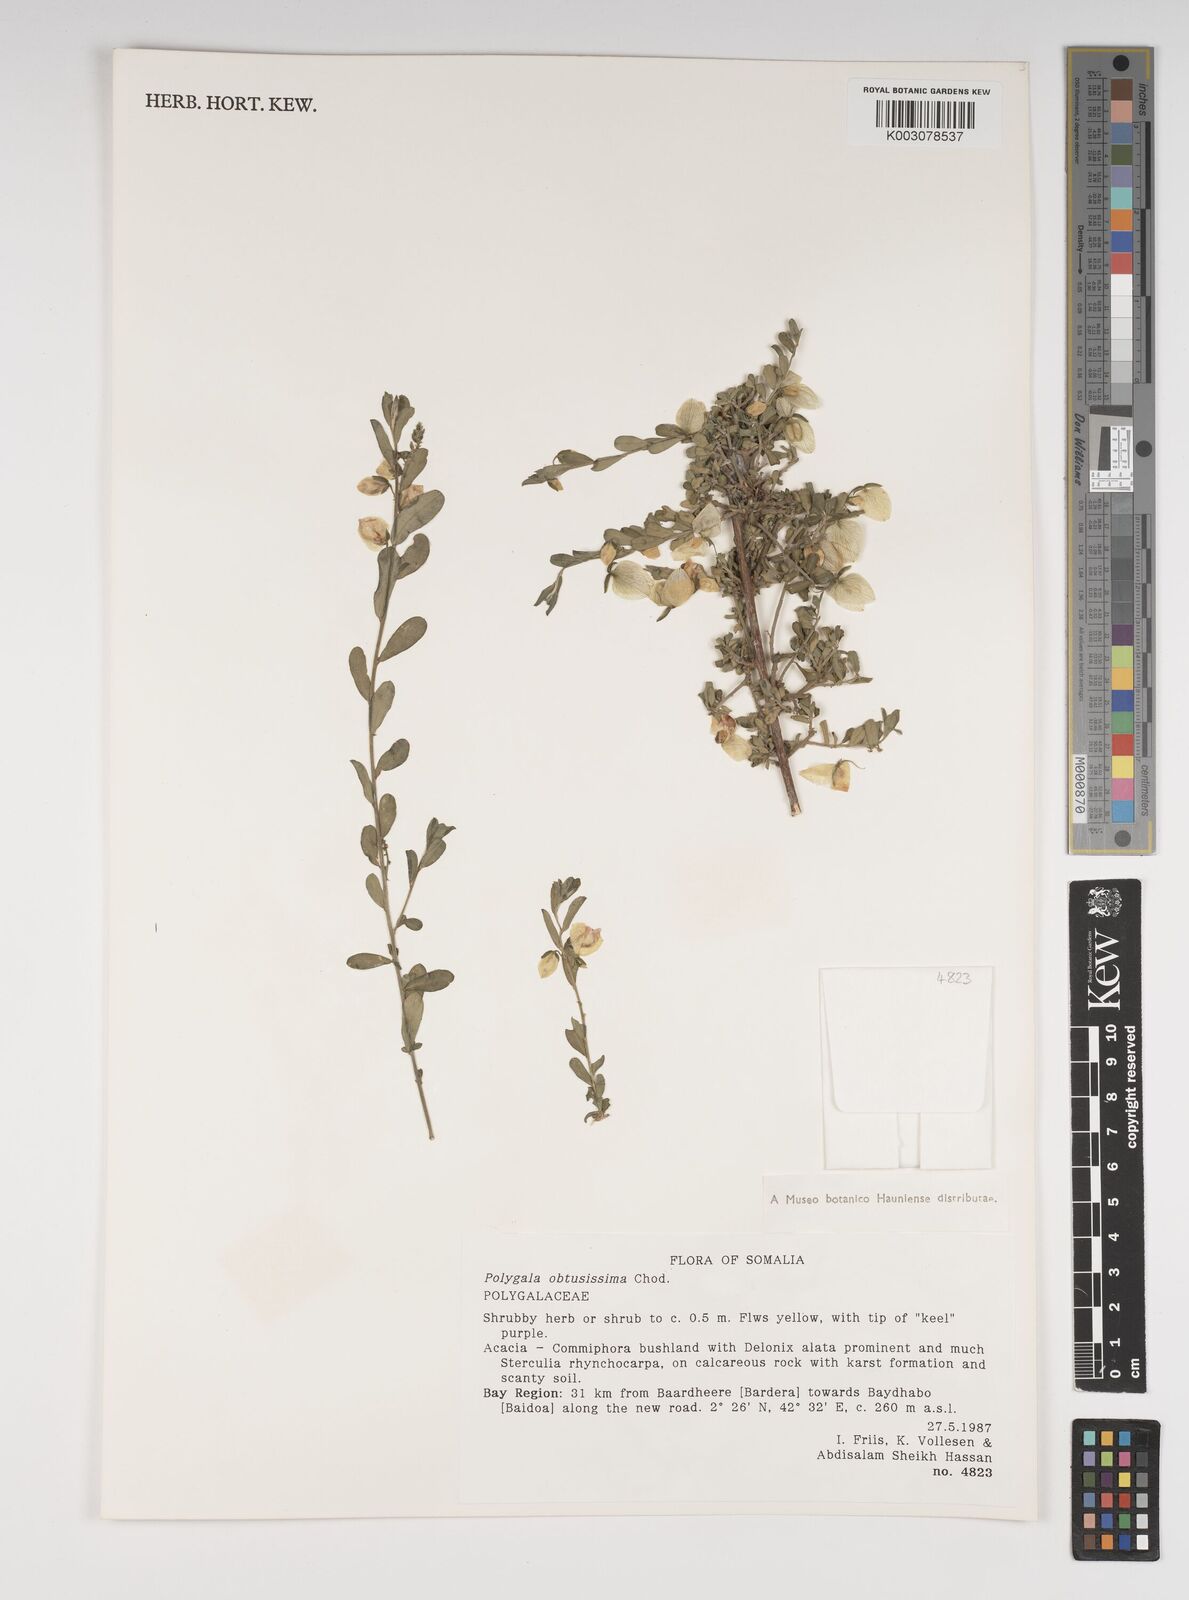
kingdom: Plantae
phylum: Tracheophyta
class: Magnoliopsida
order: Fabales
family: Polygalaceae
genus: Polygala
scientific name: Polygala senensis
